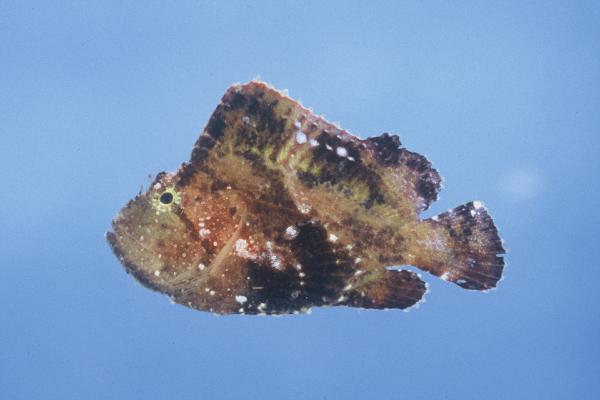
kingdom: Animalia
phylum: Chordata
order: Scorpaeniformes
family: Scorpaenidae
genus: Taenianotus
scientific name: Taenianotus triacanthus
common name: Leaf scorpionfish
